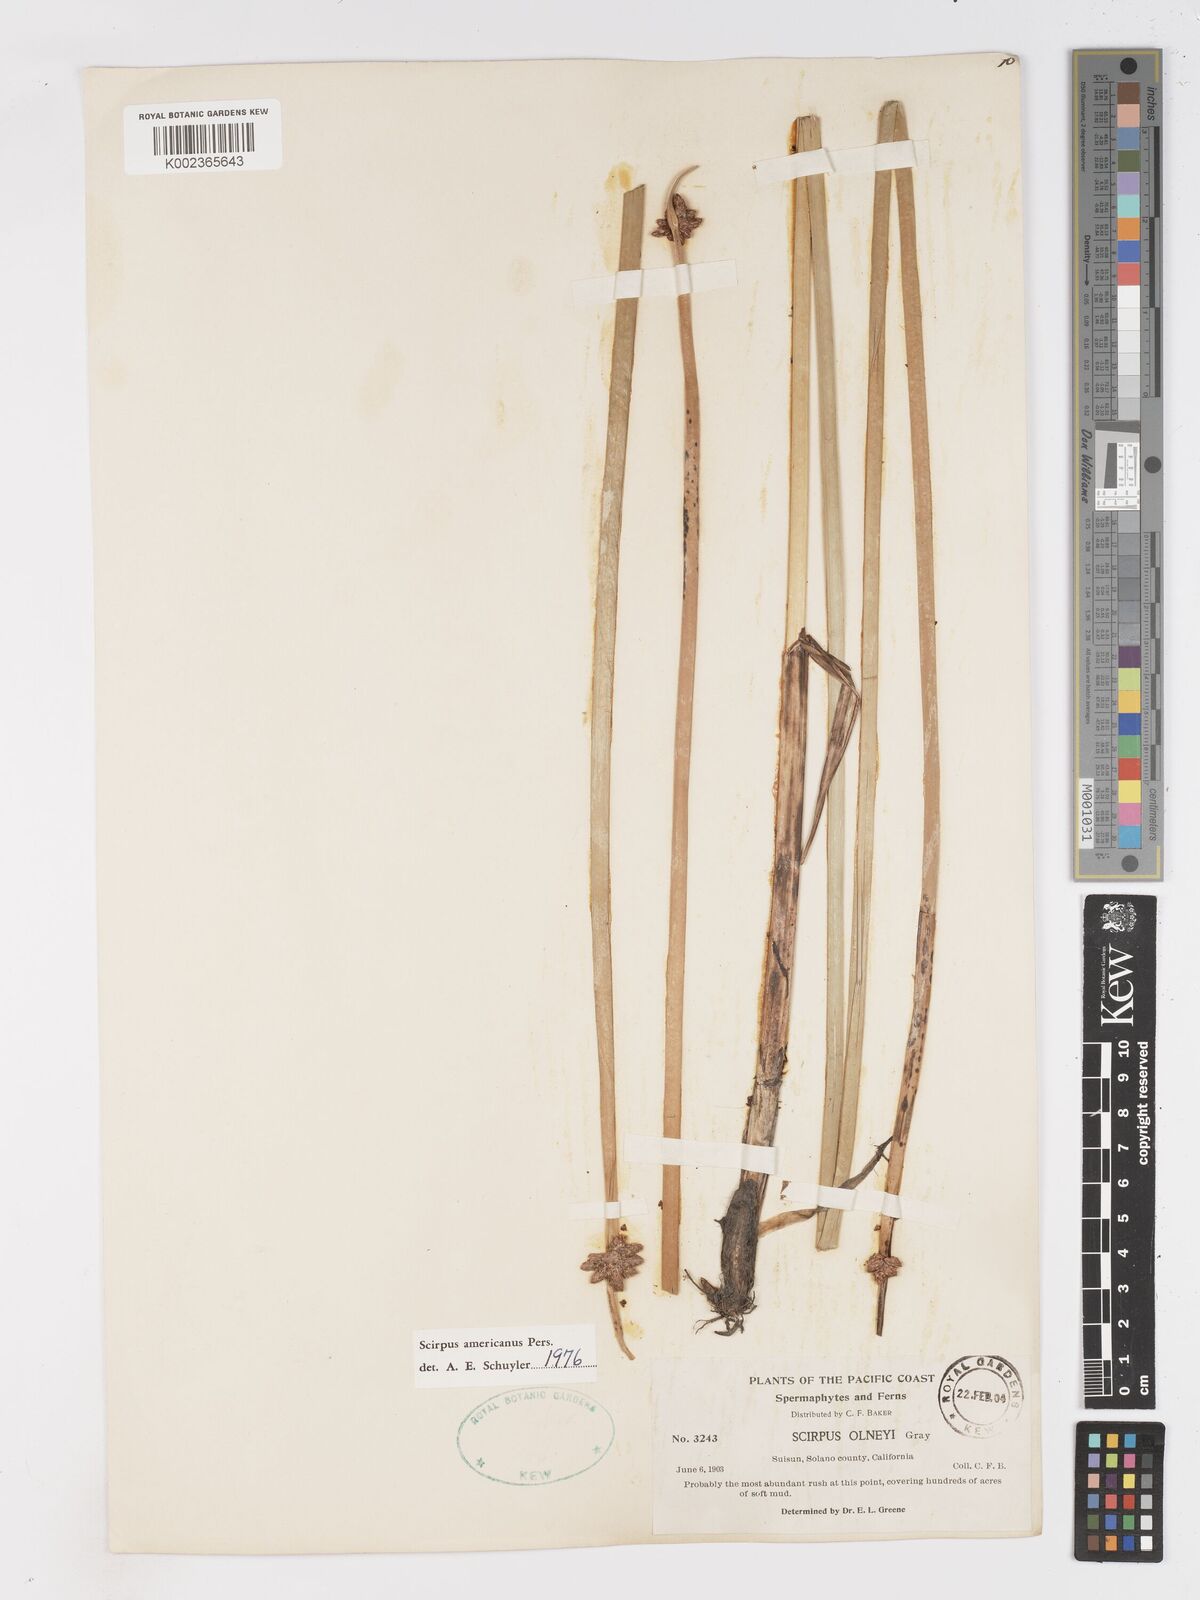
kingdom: Plantae
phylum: Tracheophyta
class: Liliopsida
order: Poales
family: Cyperaceae
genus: Schoenoplectus
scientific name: Schoenoplectus americanus
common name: American three-square bulrush
